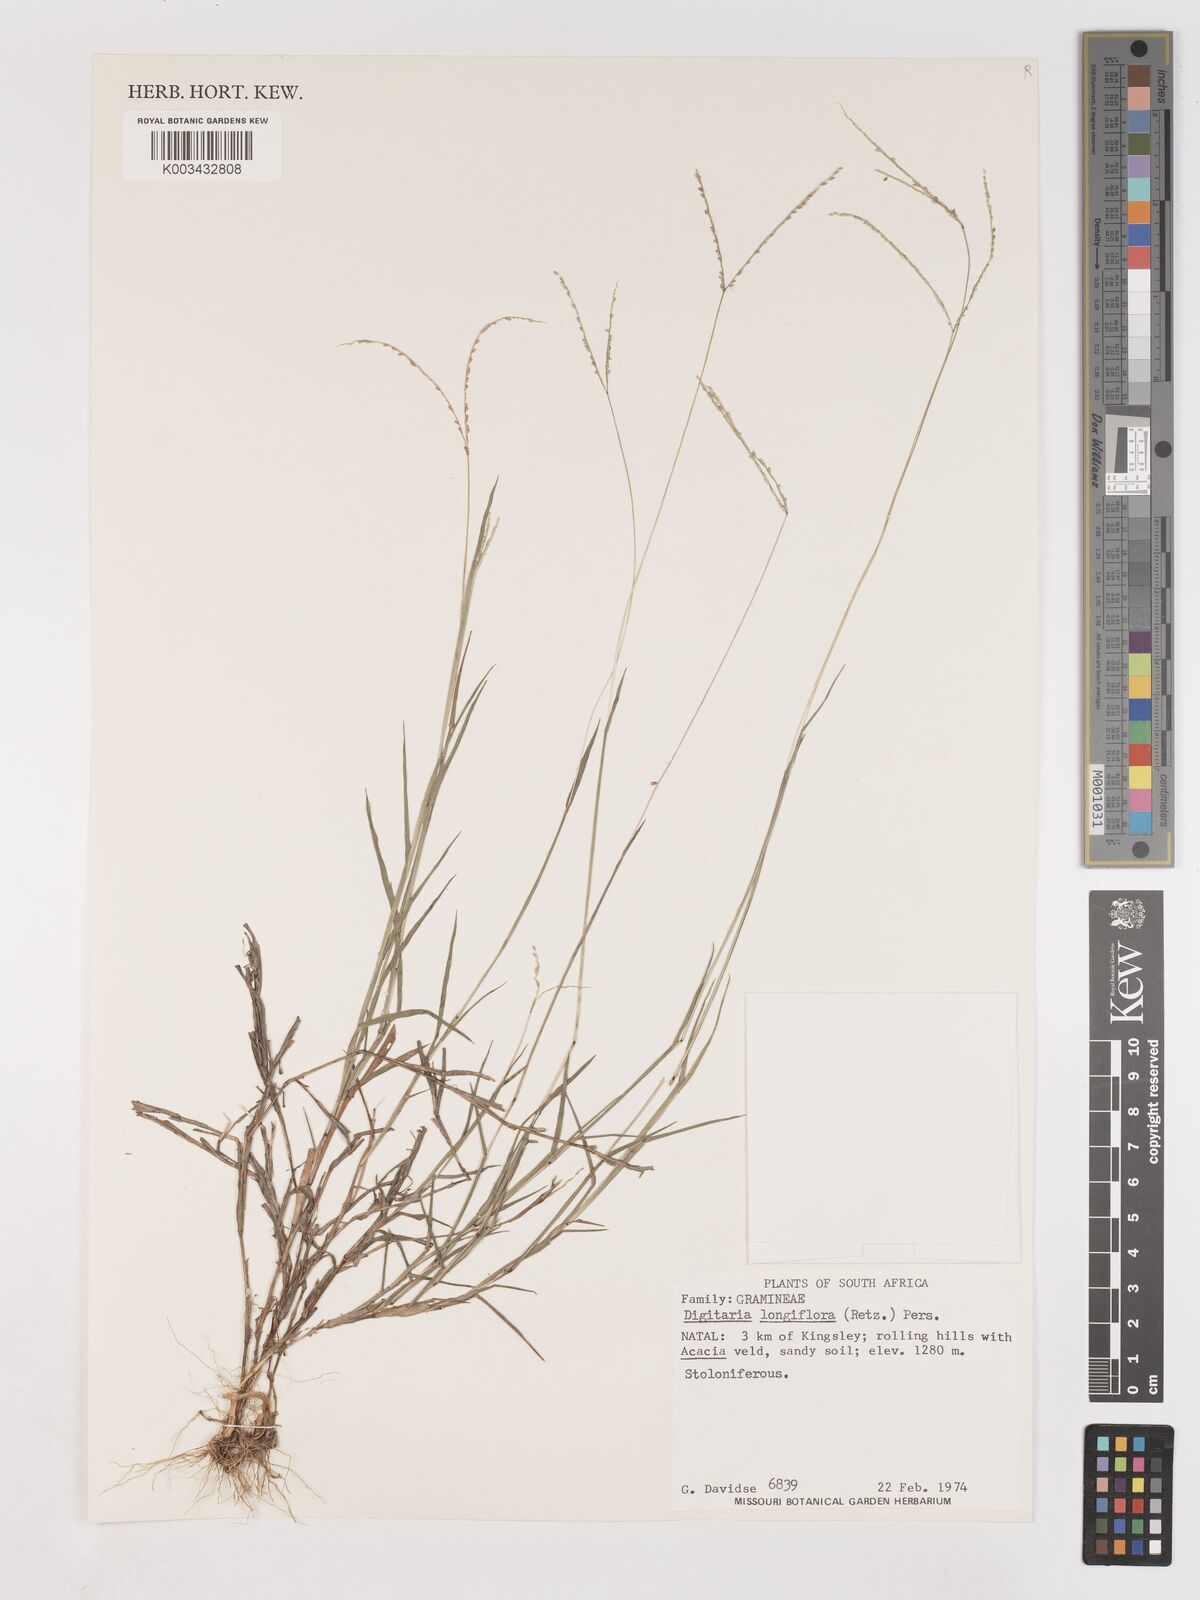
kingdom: Plantae
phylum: Tracheophyta
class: Liliopsida
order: Poales
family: Poaceae
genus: Digitaria
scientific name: Digitaria longiflora
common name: Wire crabgrass
